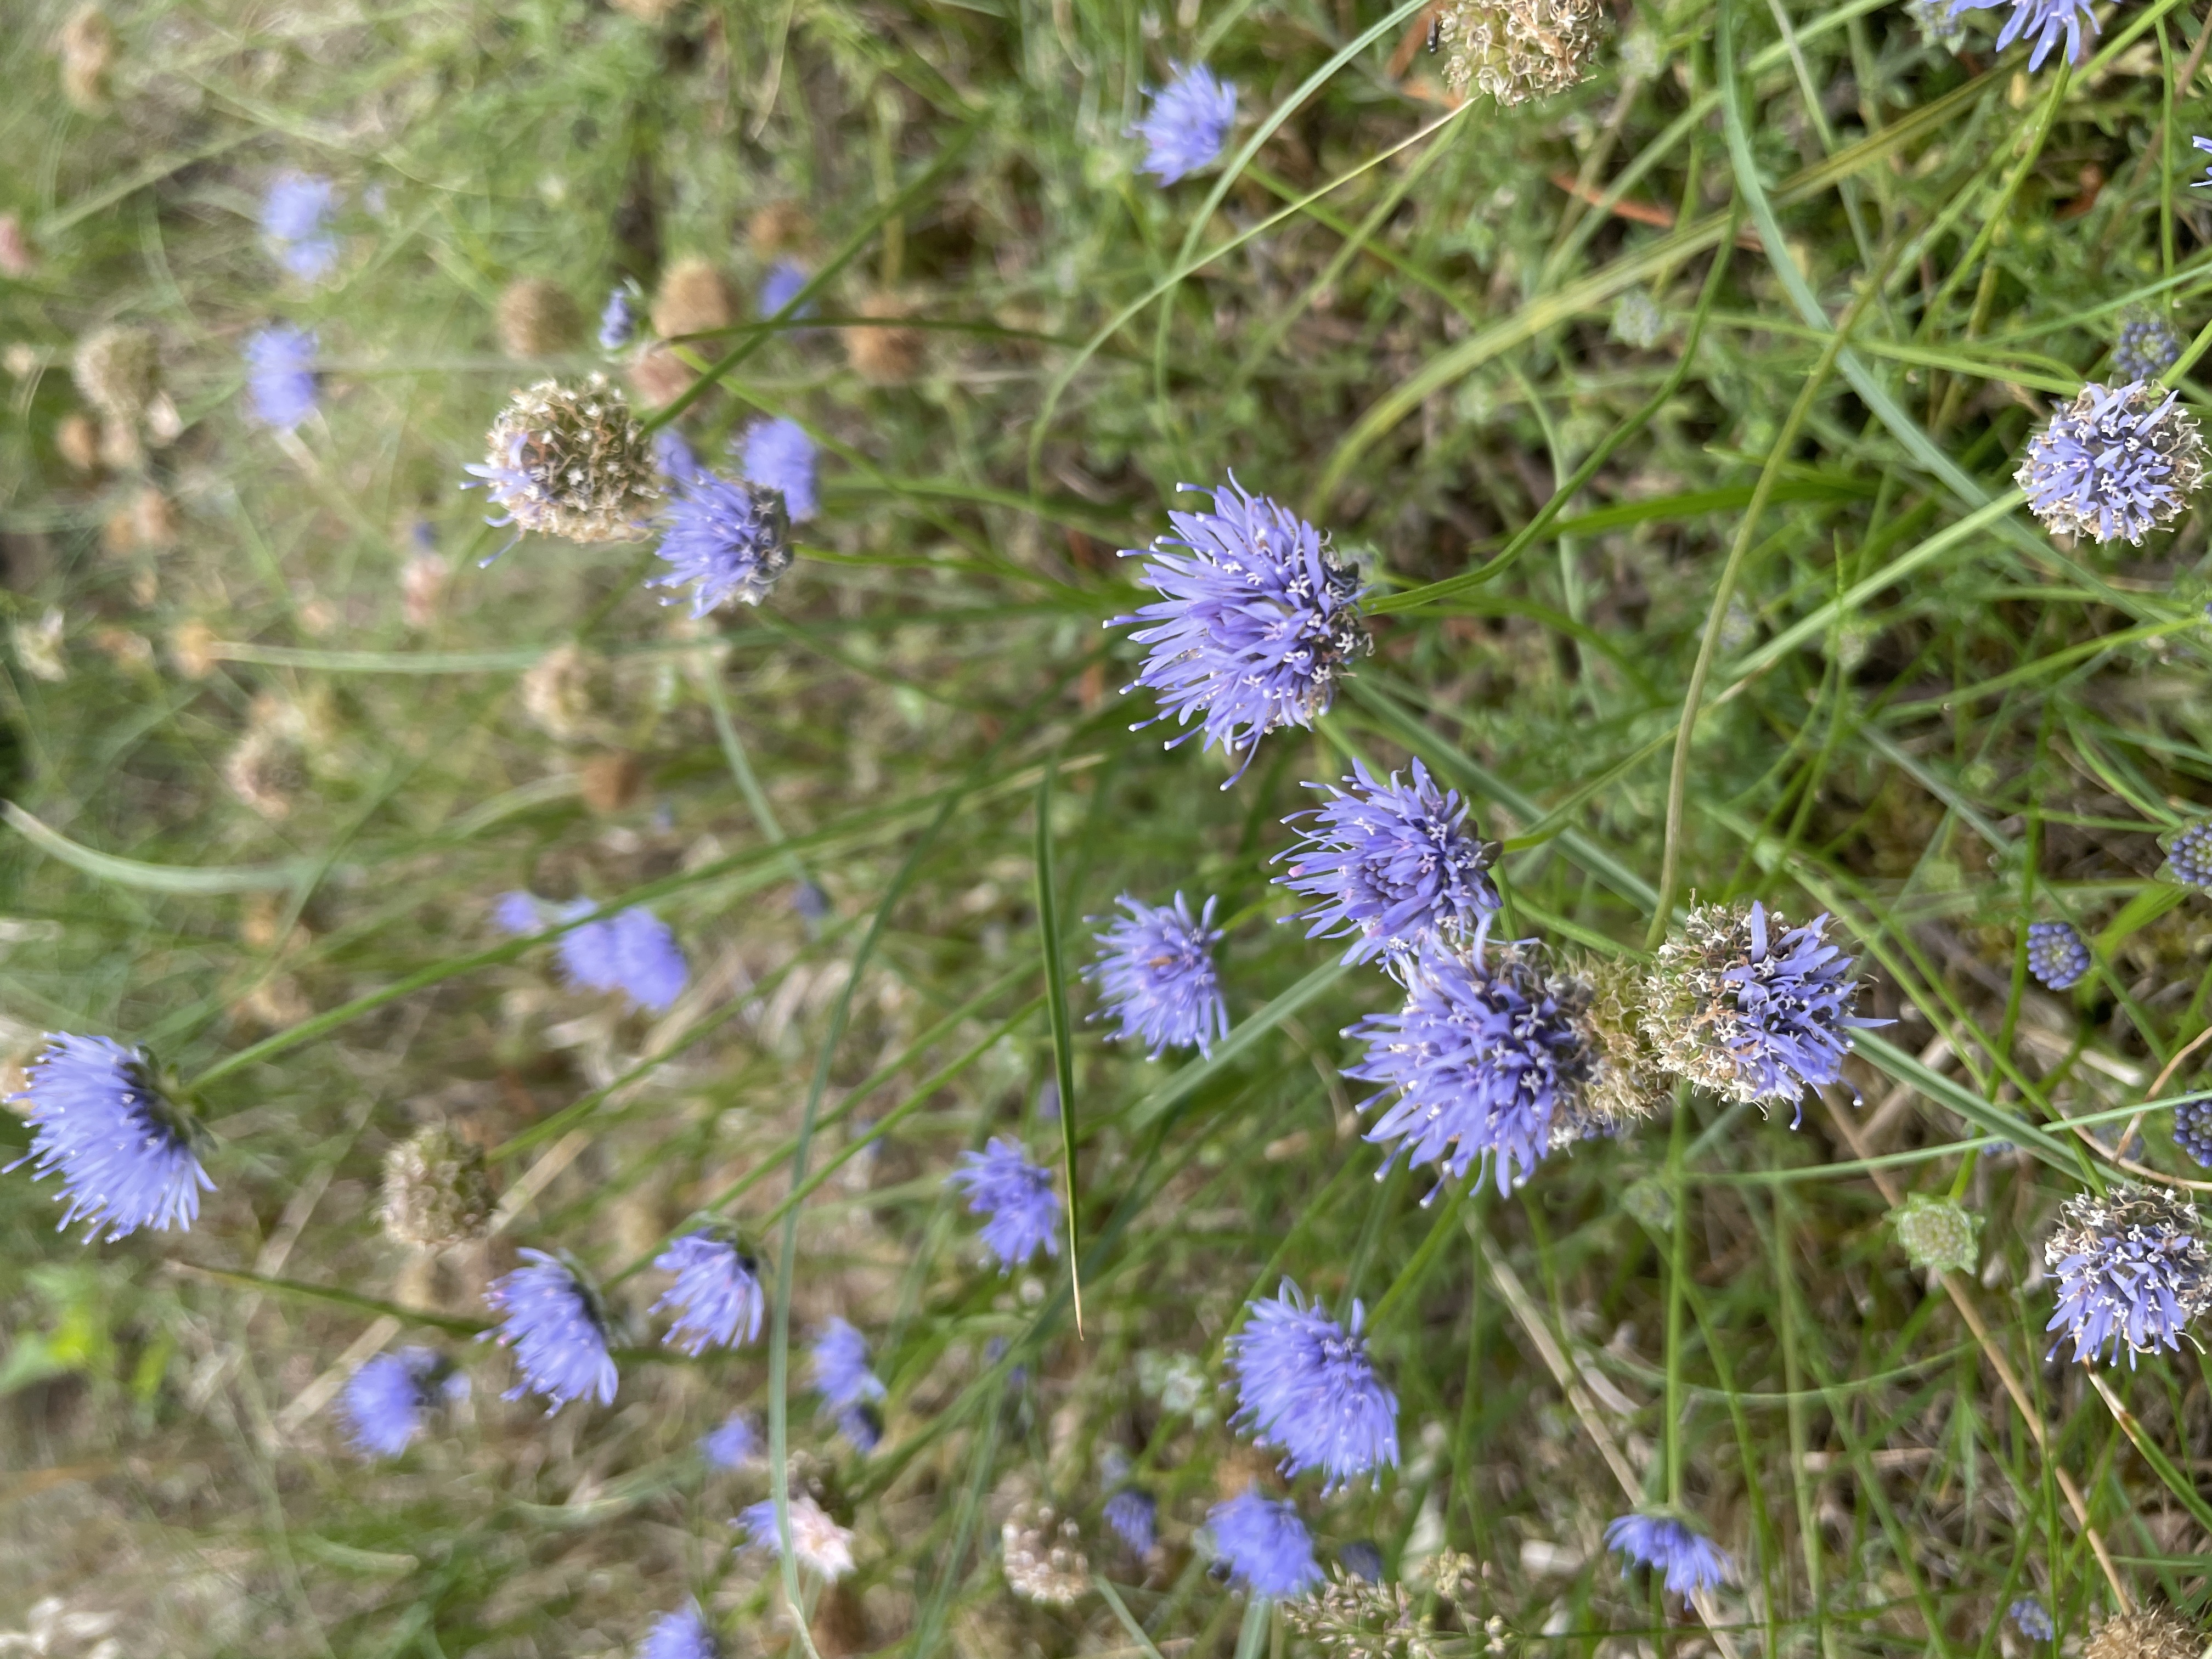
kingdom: Plantae
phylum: Tracheophyta
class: Magnoliopsida
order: Asterales
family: Campanulaceae
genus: Jasione
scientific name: Jasione montana
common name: Blåmunke
